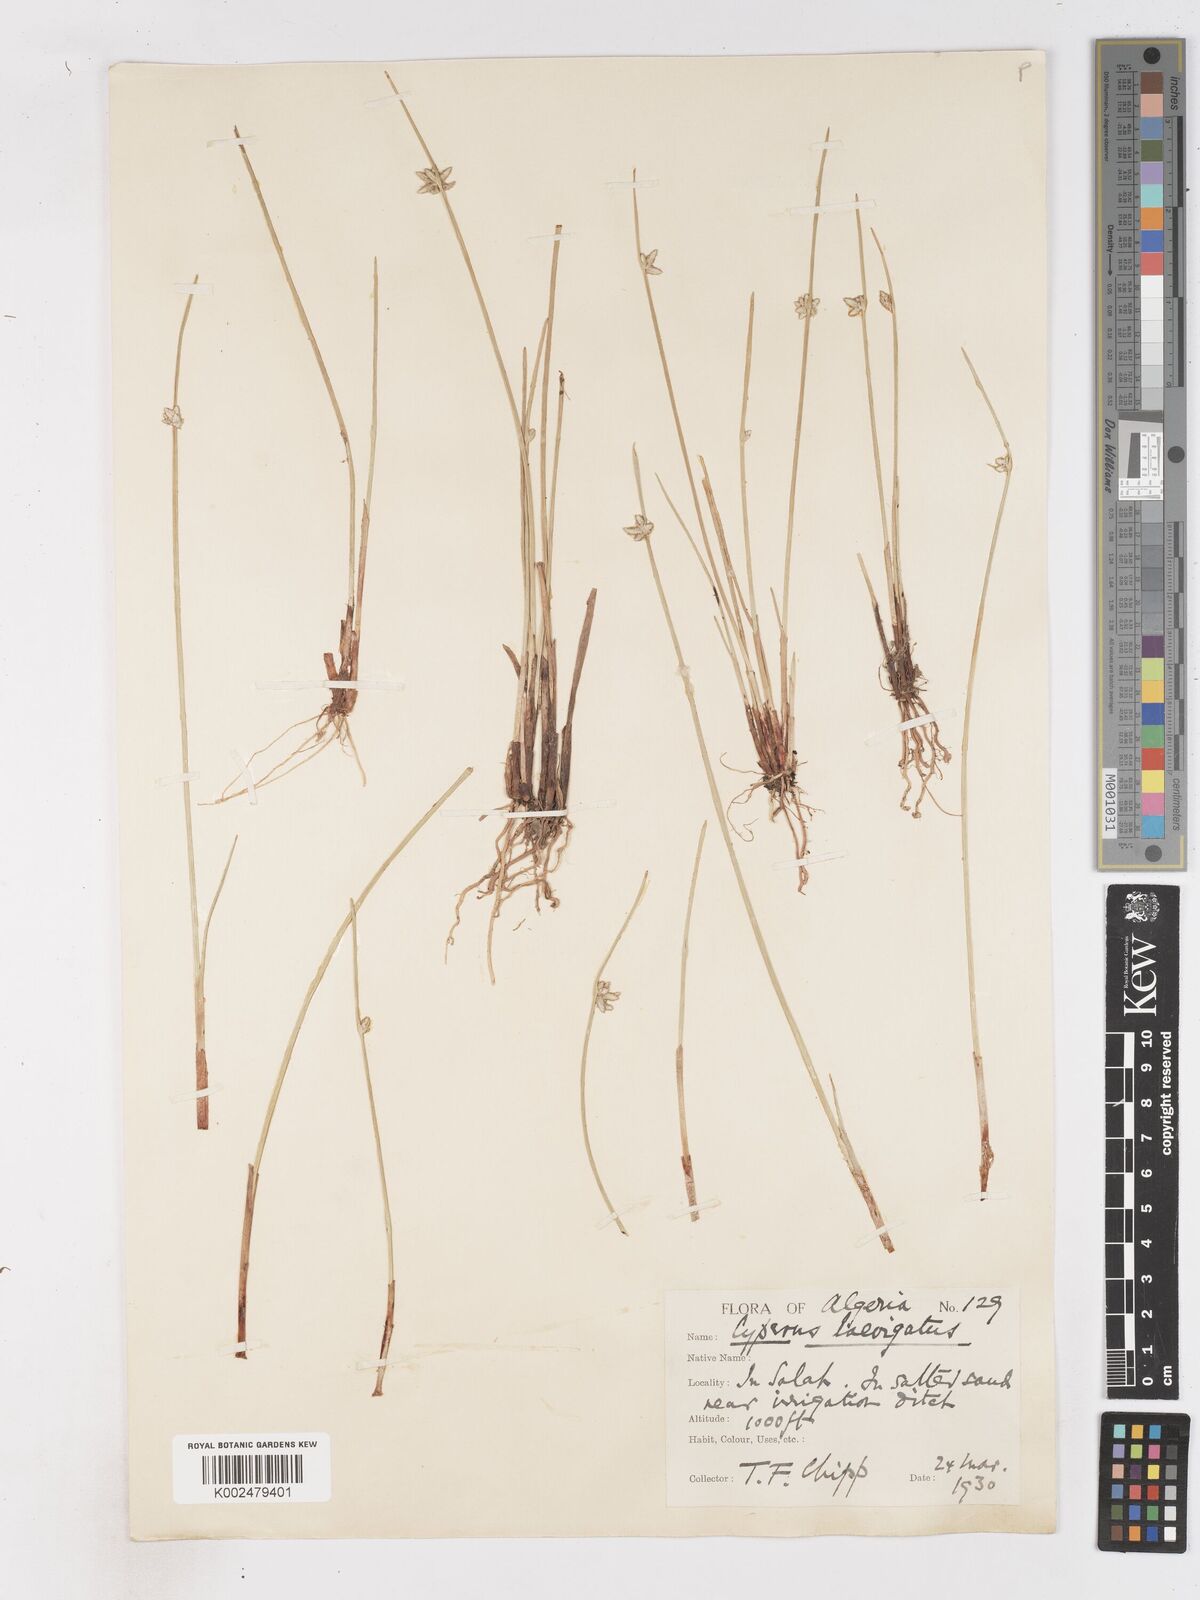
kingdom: Plantae
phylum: Tracheophyta
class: Liliopsida
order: Poales
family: Cyperaceae
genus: Cyperus
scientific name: Cyperus laevigatus
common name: Smooth flat sedge
